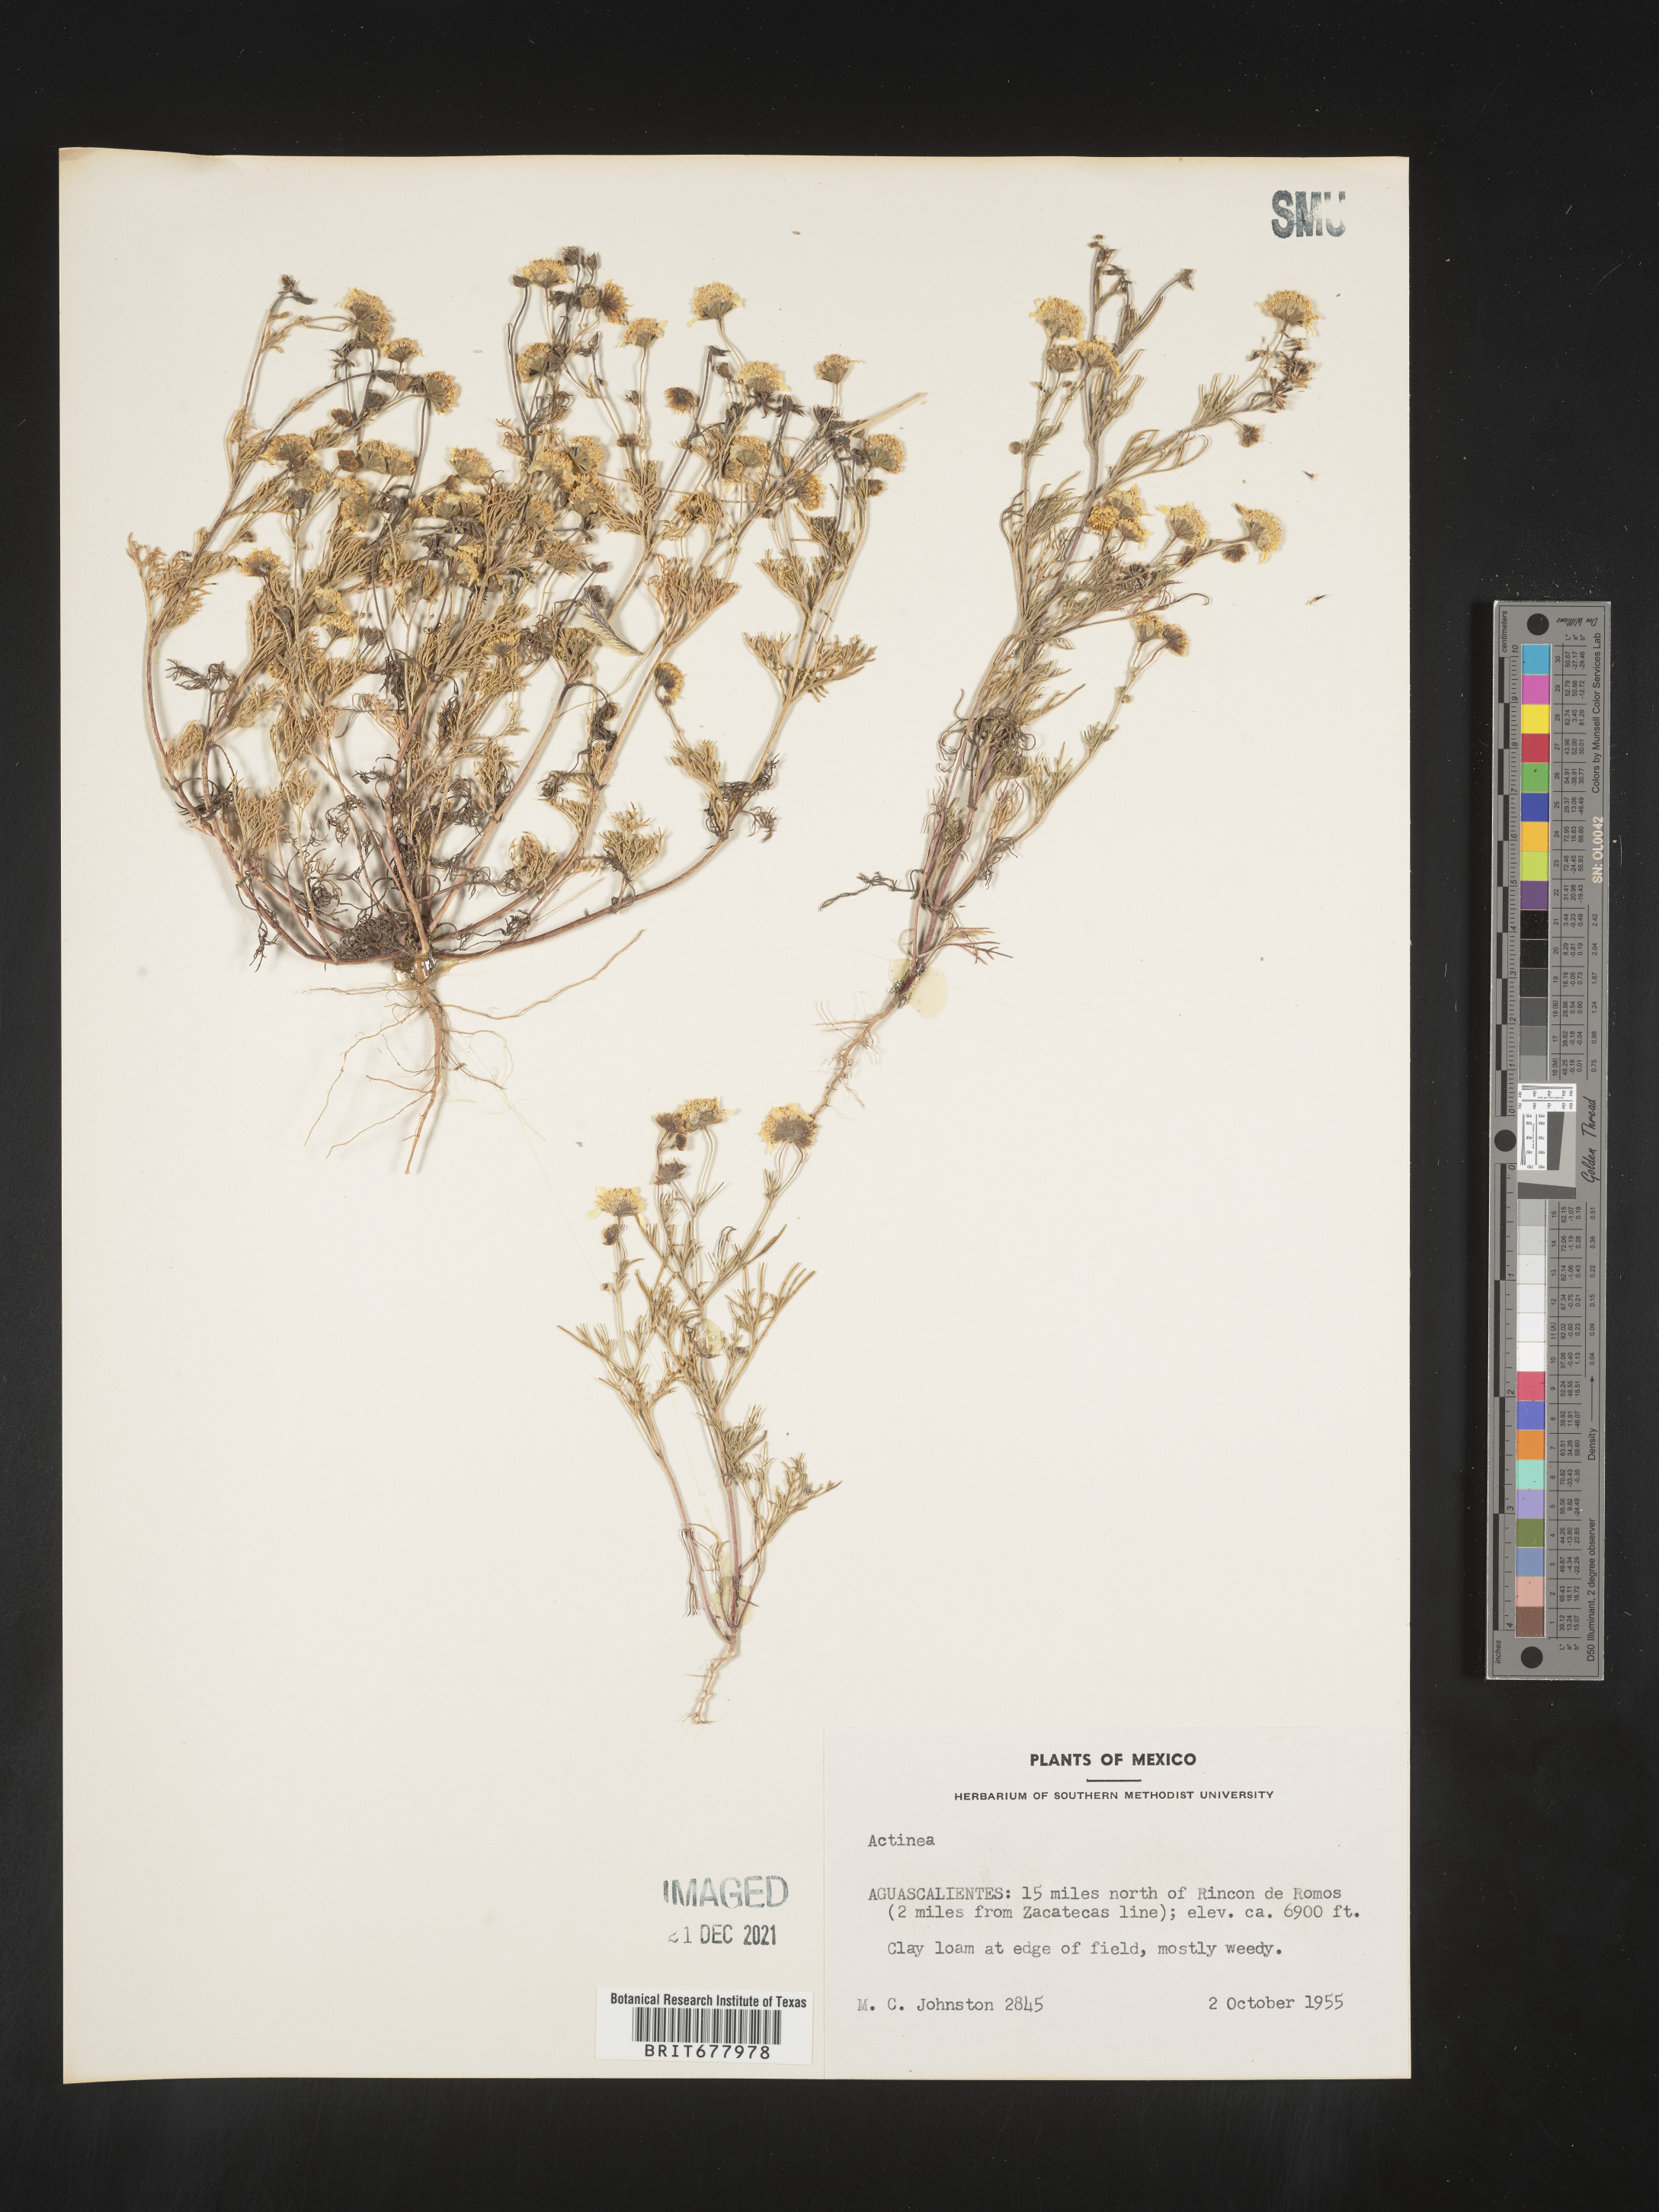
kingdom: Plantae
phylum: Tracheophyta
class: Magnoliopsida
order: Asterales
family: Asteraceae
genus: Helenium
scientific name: Helenium
